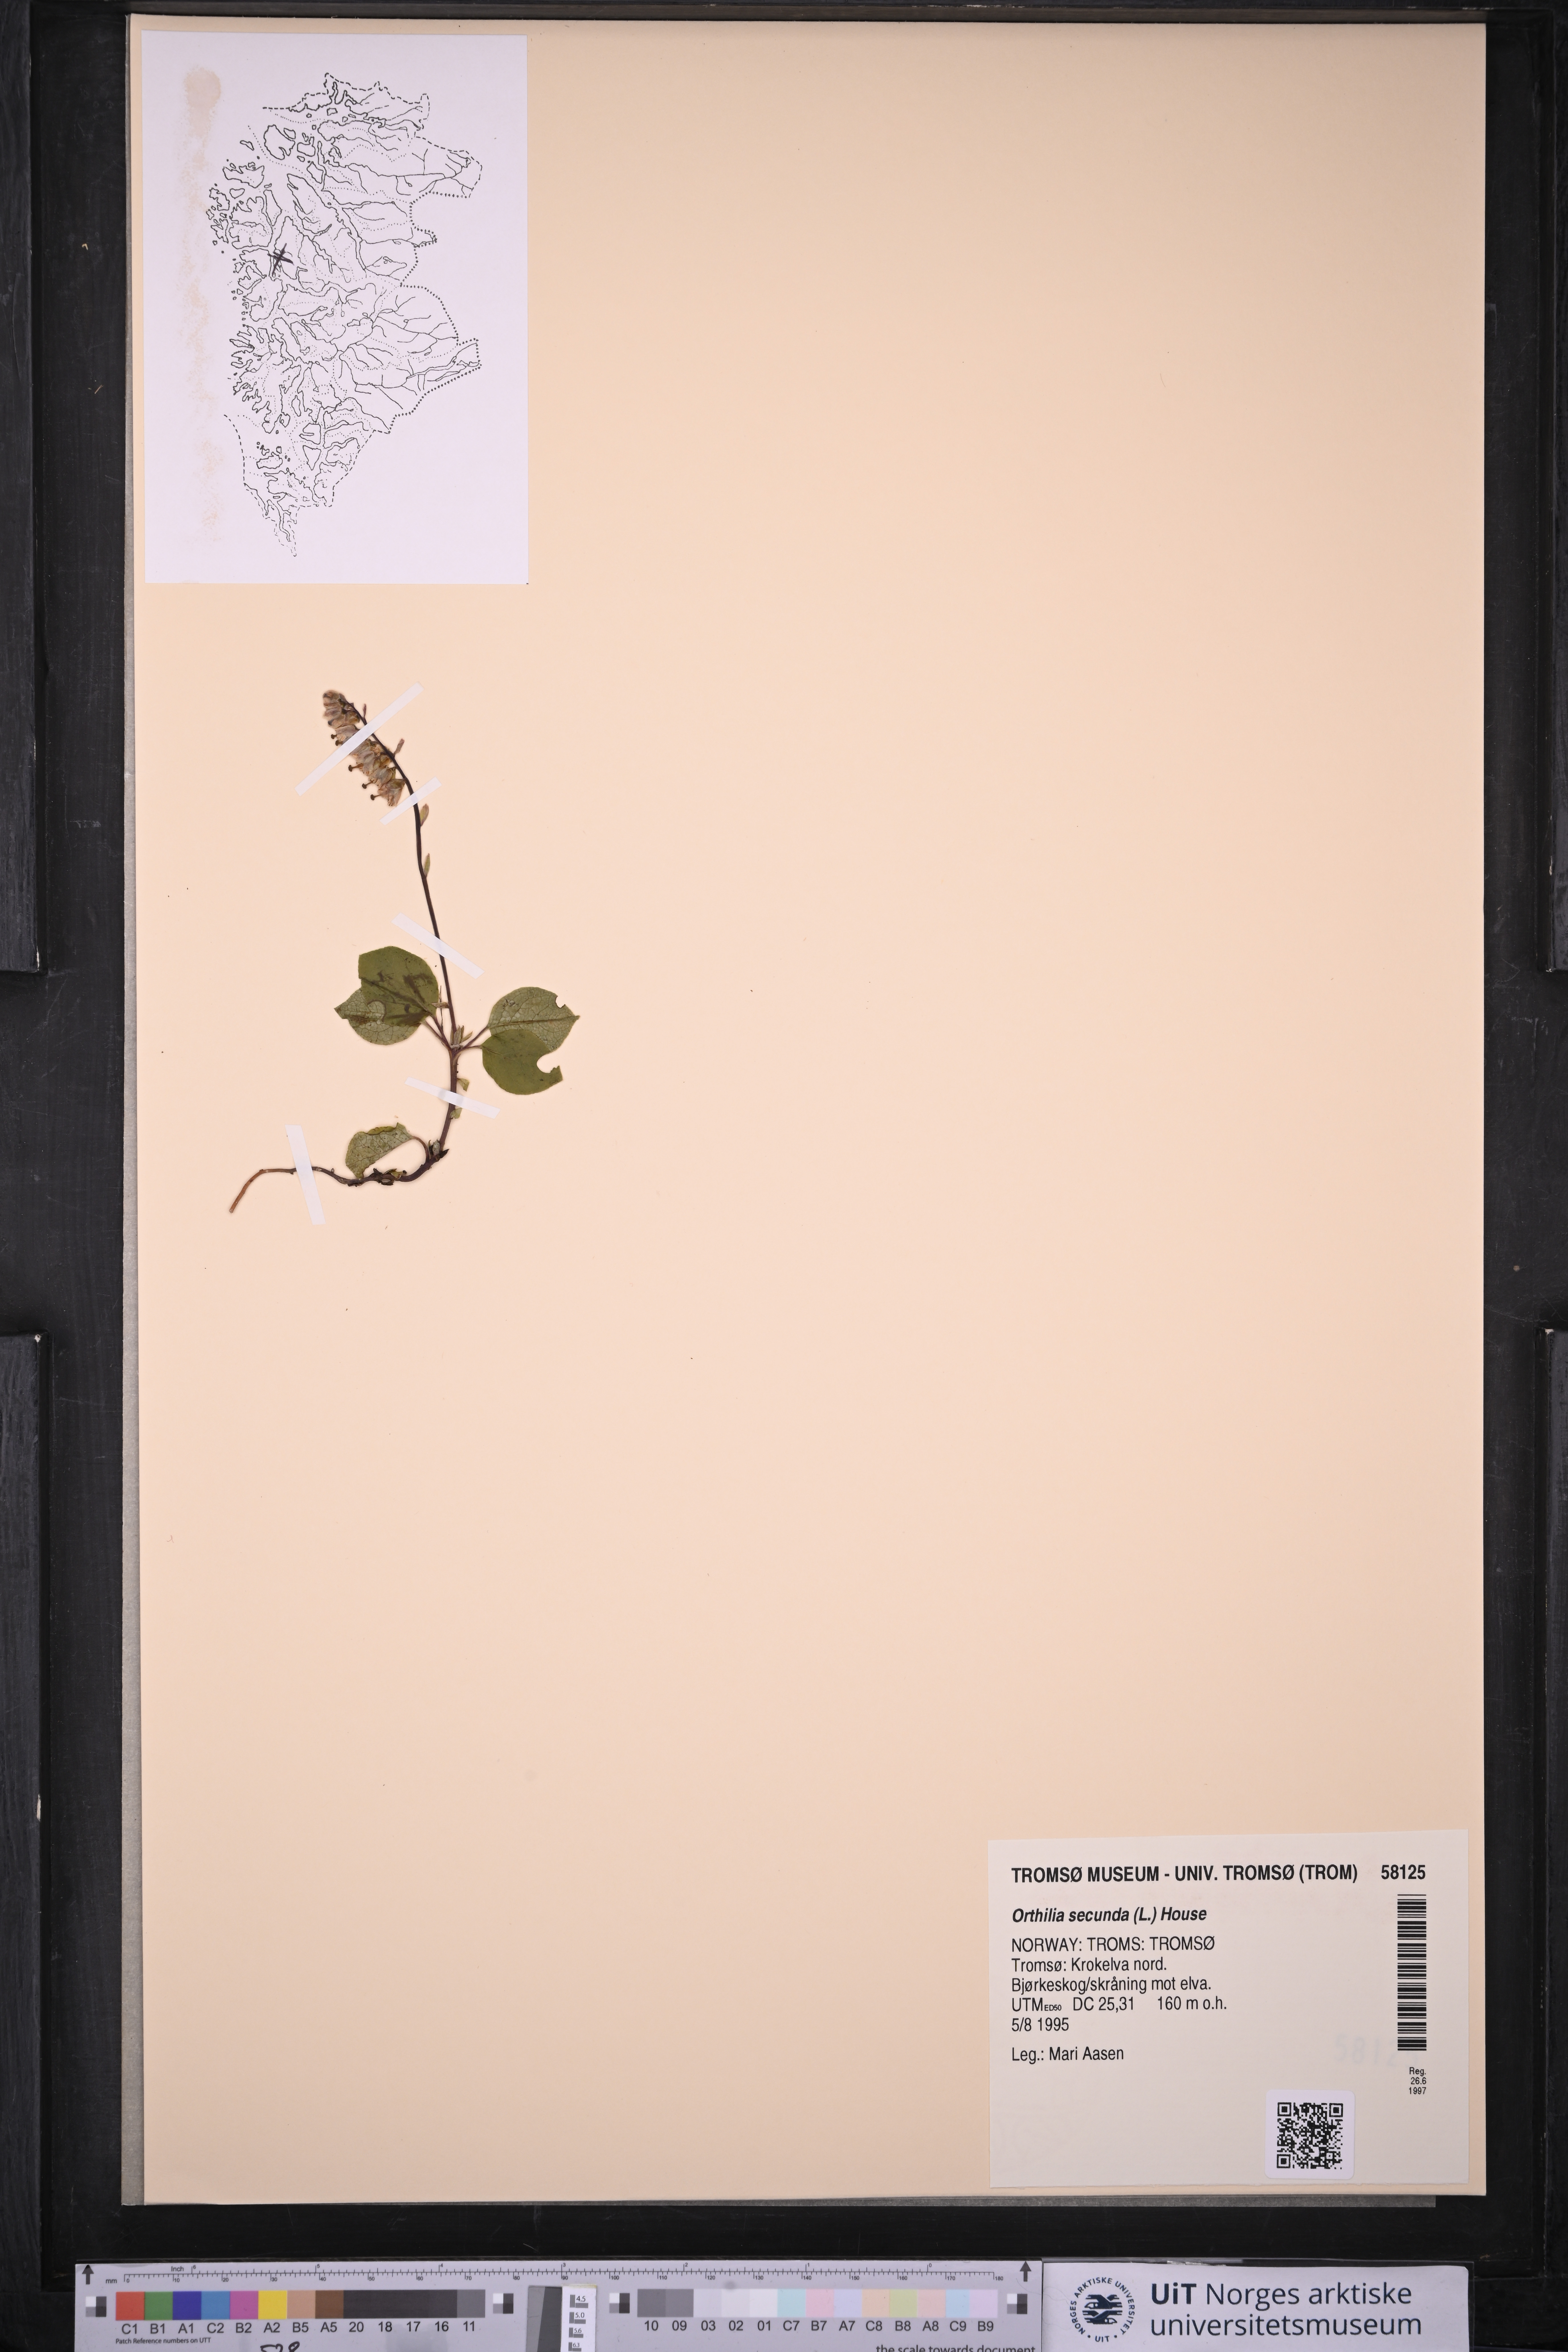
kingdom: Plantae
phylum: Tracheophyta
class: Magnoliopsida
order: Ericales
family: Ericaceae
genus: Orthilia
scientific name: Orthilia secunda
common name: One-sided orthilia
